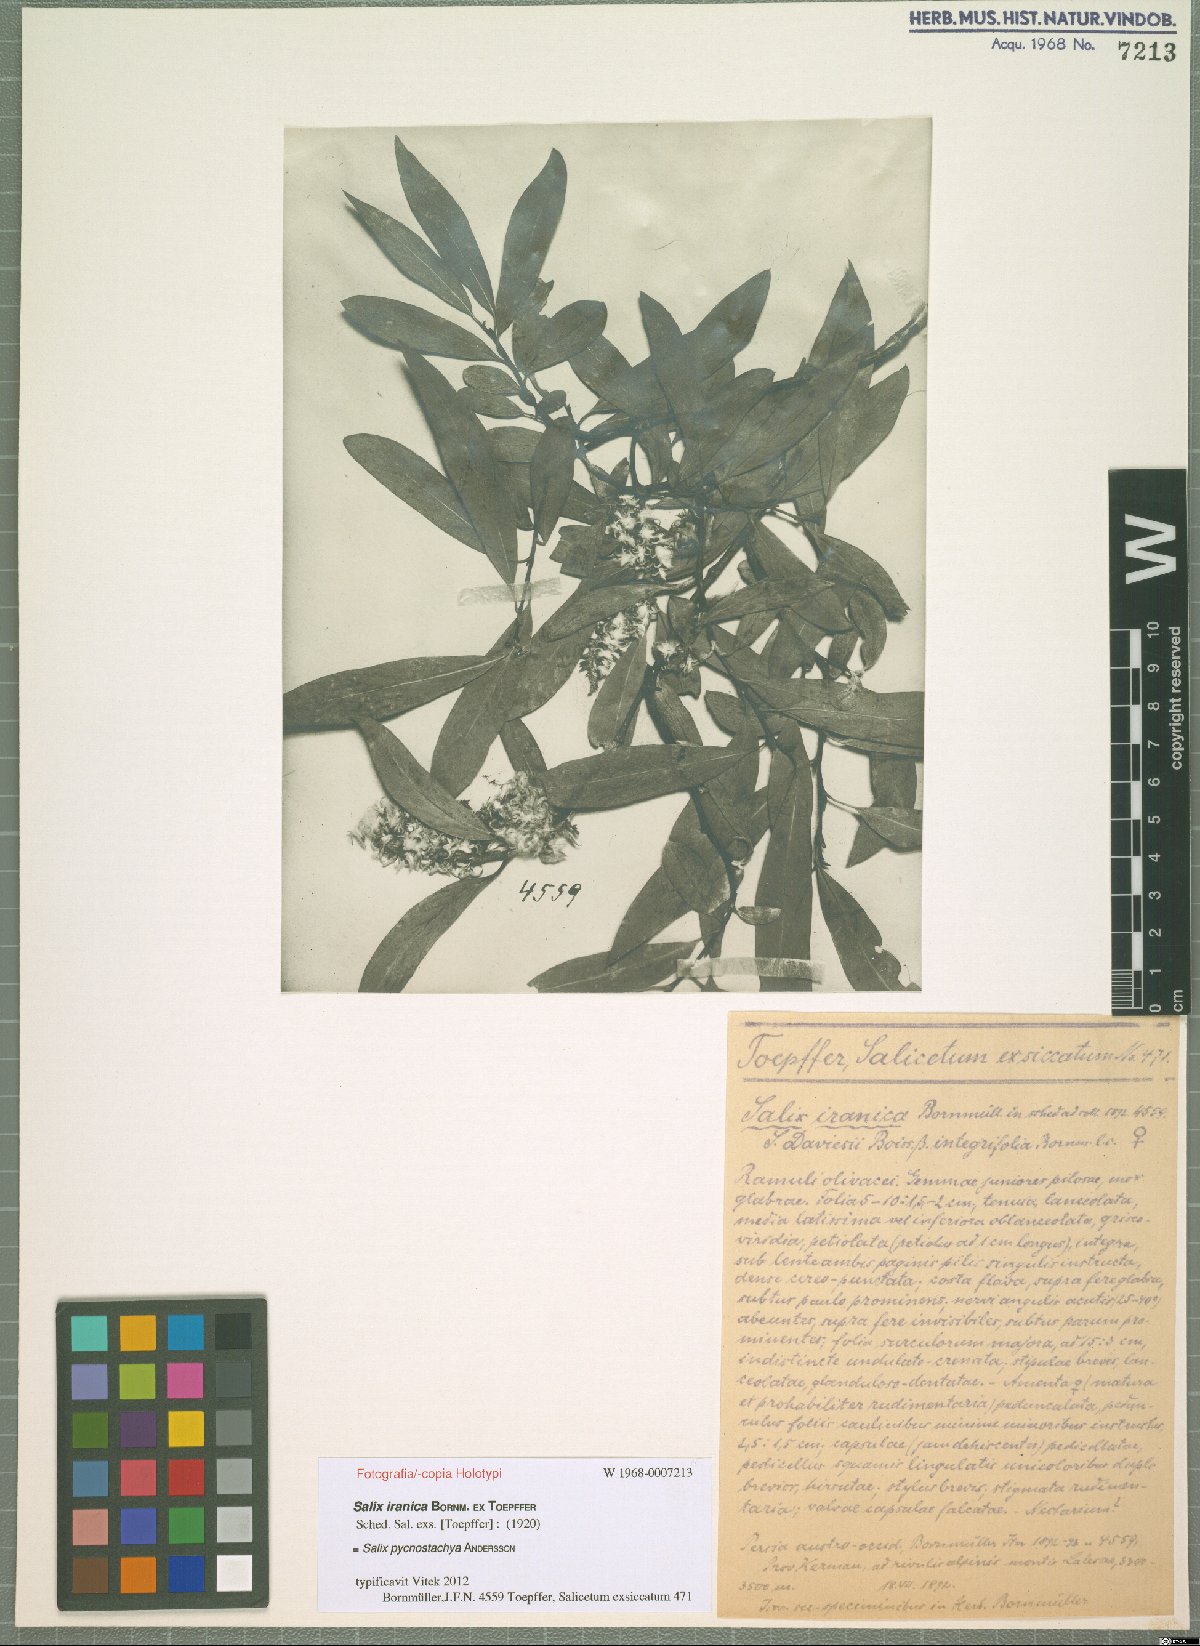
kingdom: Plantae
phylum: Tracheophyta
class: Magnoliopsida
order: Malpighiales
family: Salicaceae
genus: Salix
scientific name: Salix sericocarpa
